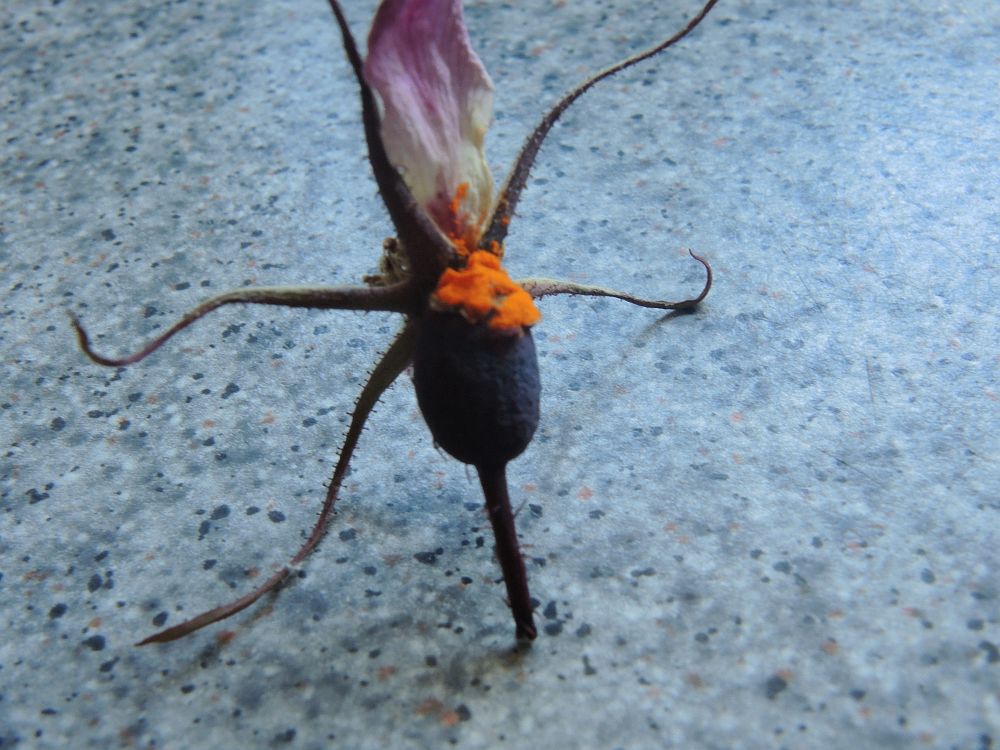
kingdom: Fungi
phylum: Basidiomycota
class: Pucciniomycetes
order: Pucciniales
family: Phragmidiaceae
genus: Phragmidium
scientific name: Phragmidium mucronatum
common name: rose-flercellerust
